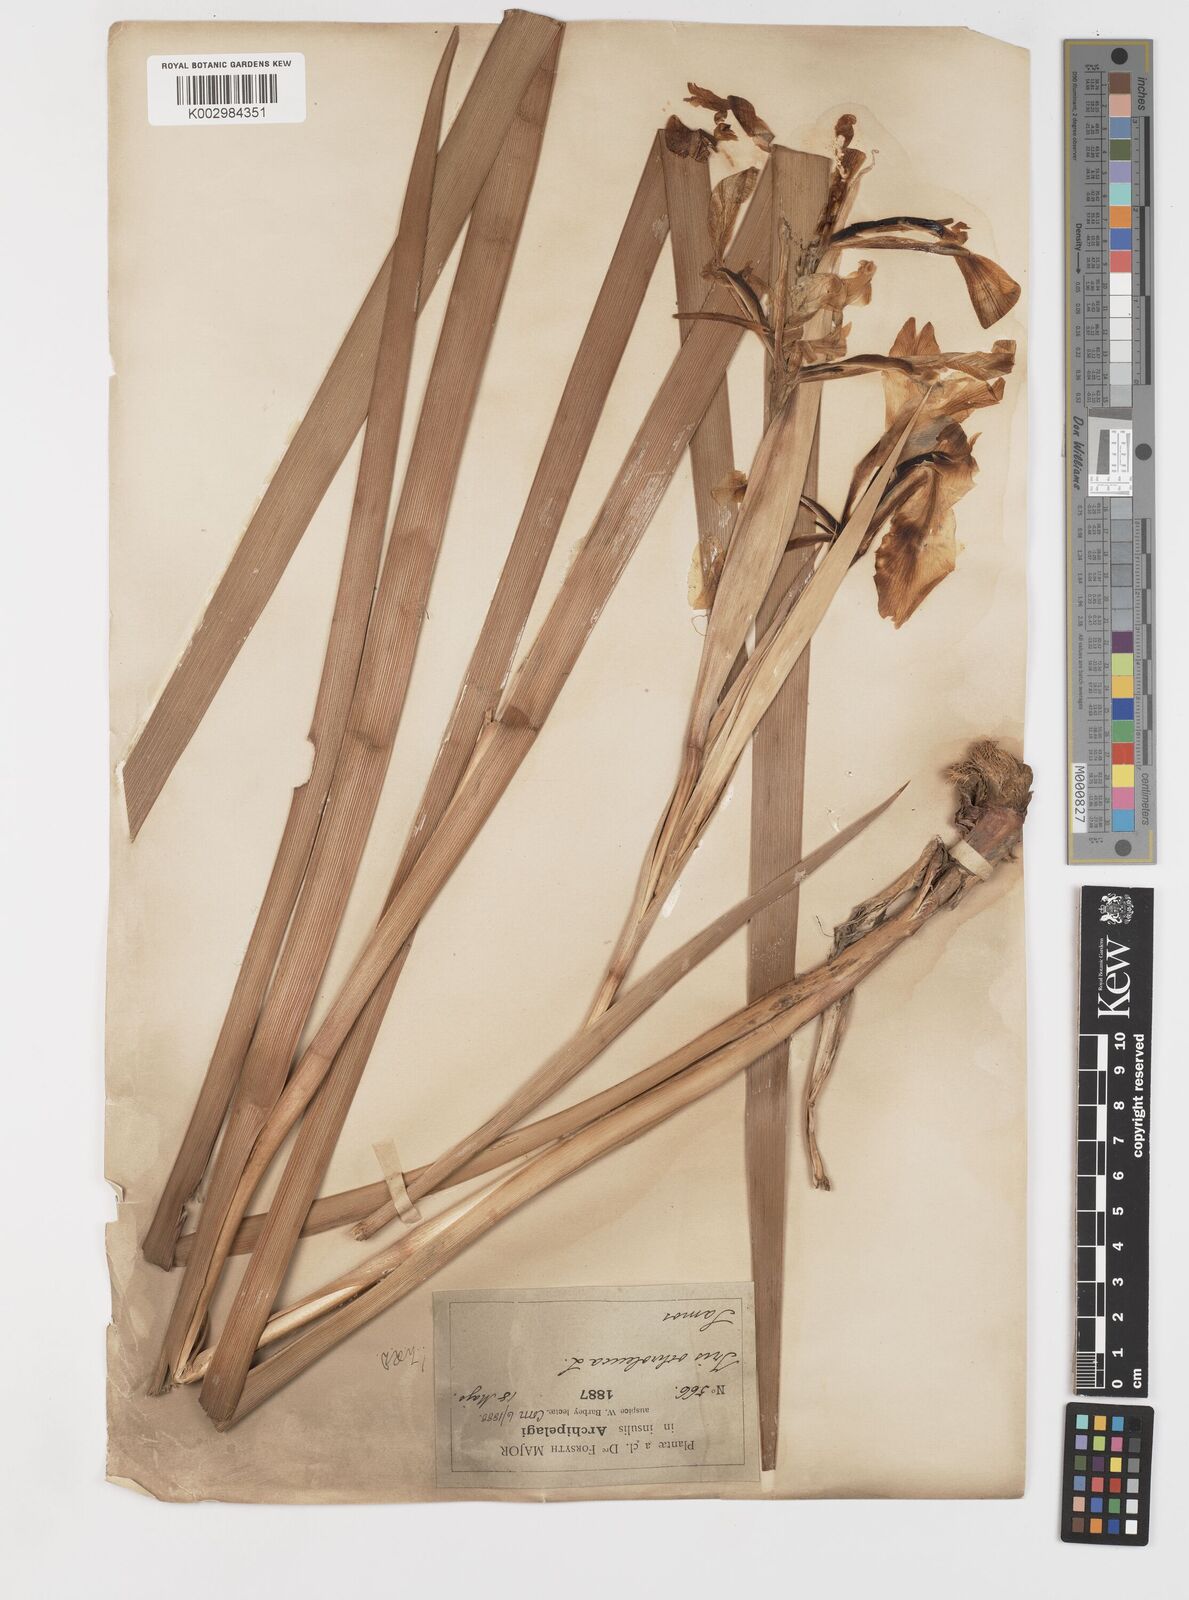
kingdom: Plantae
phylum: Tracheophyta
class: Liliopsida
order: Asparagales
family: Iridaceae
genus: Iris
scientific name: Iris orientalis
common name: Turkish iris
